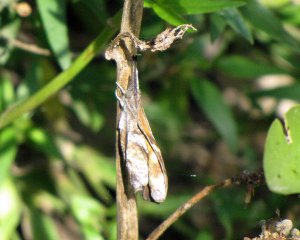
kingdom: Animalia
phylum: Arthropoda
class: Insecta
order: Lepidoptera
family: Nymphalidae
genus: Libytheana
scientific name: Libytheana carinenta
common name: American Snout
